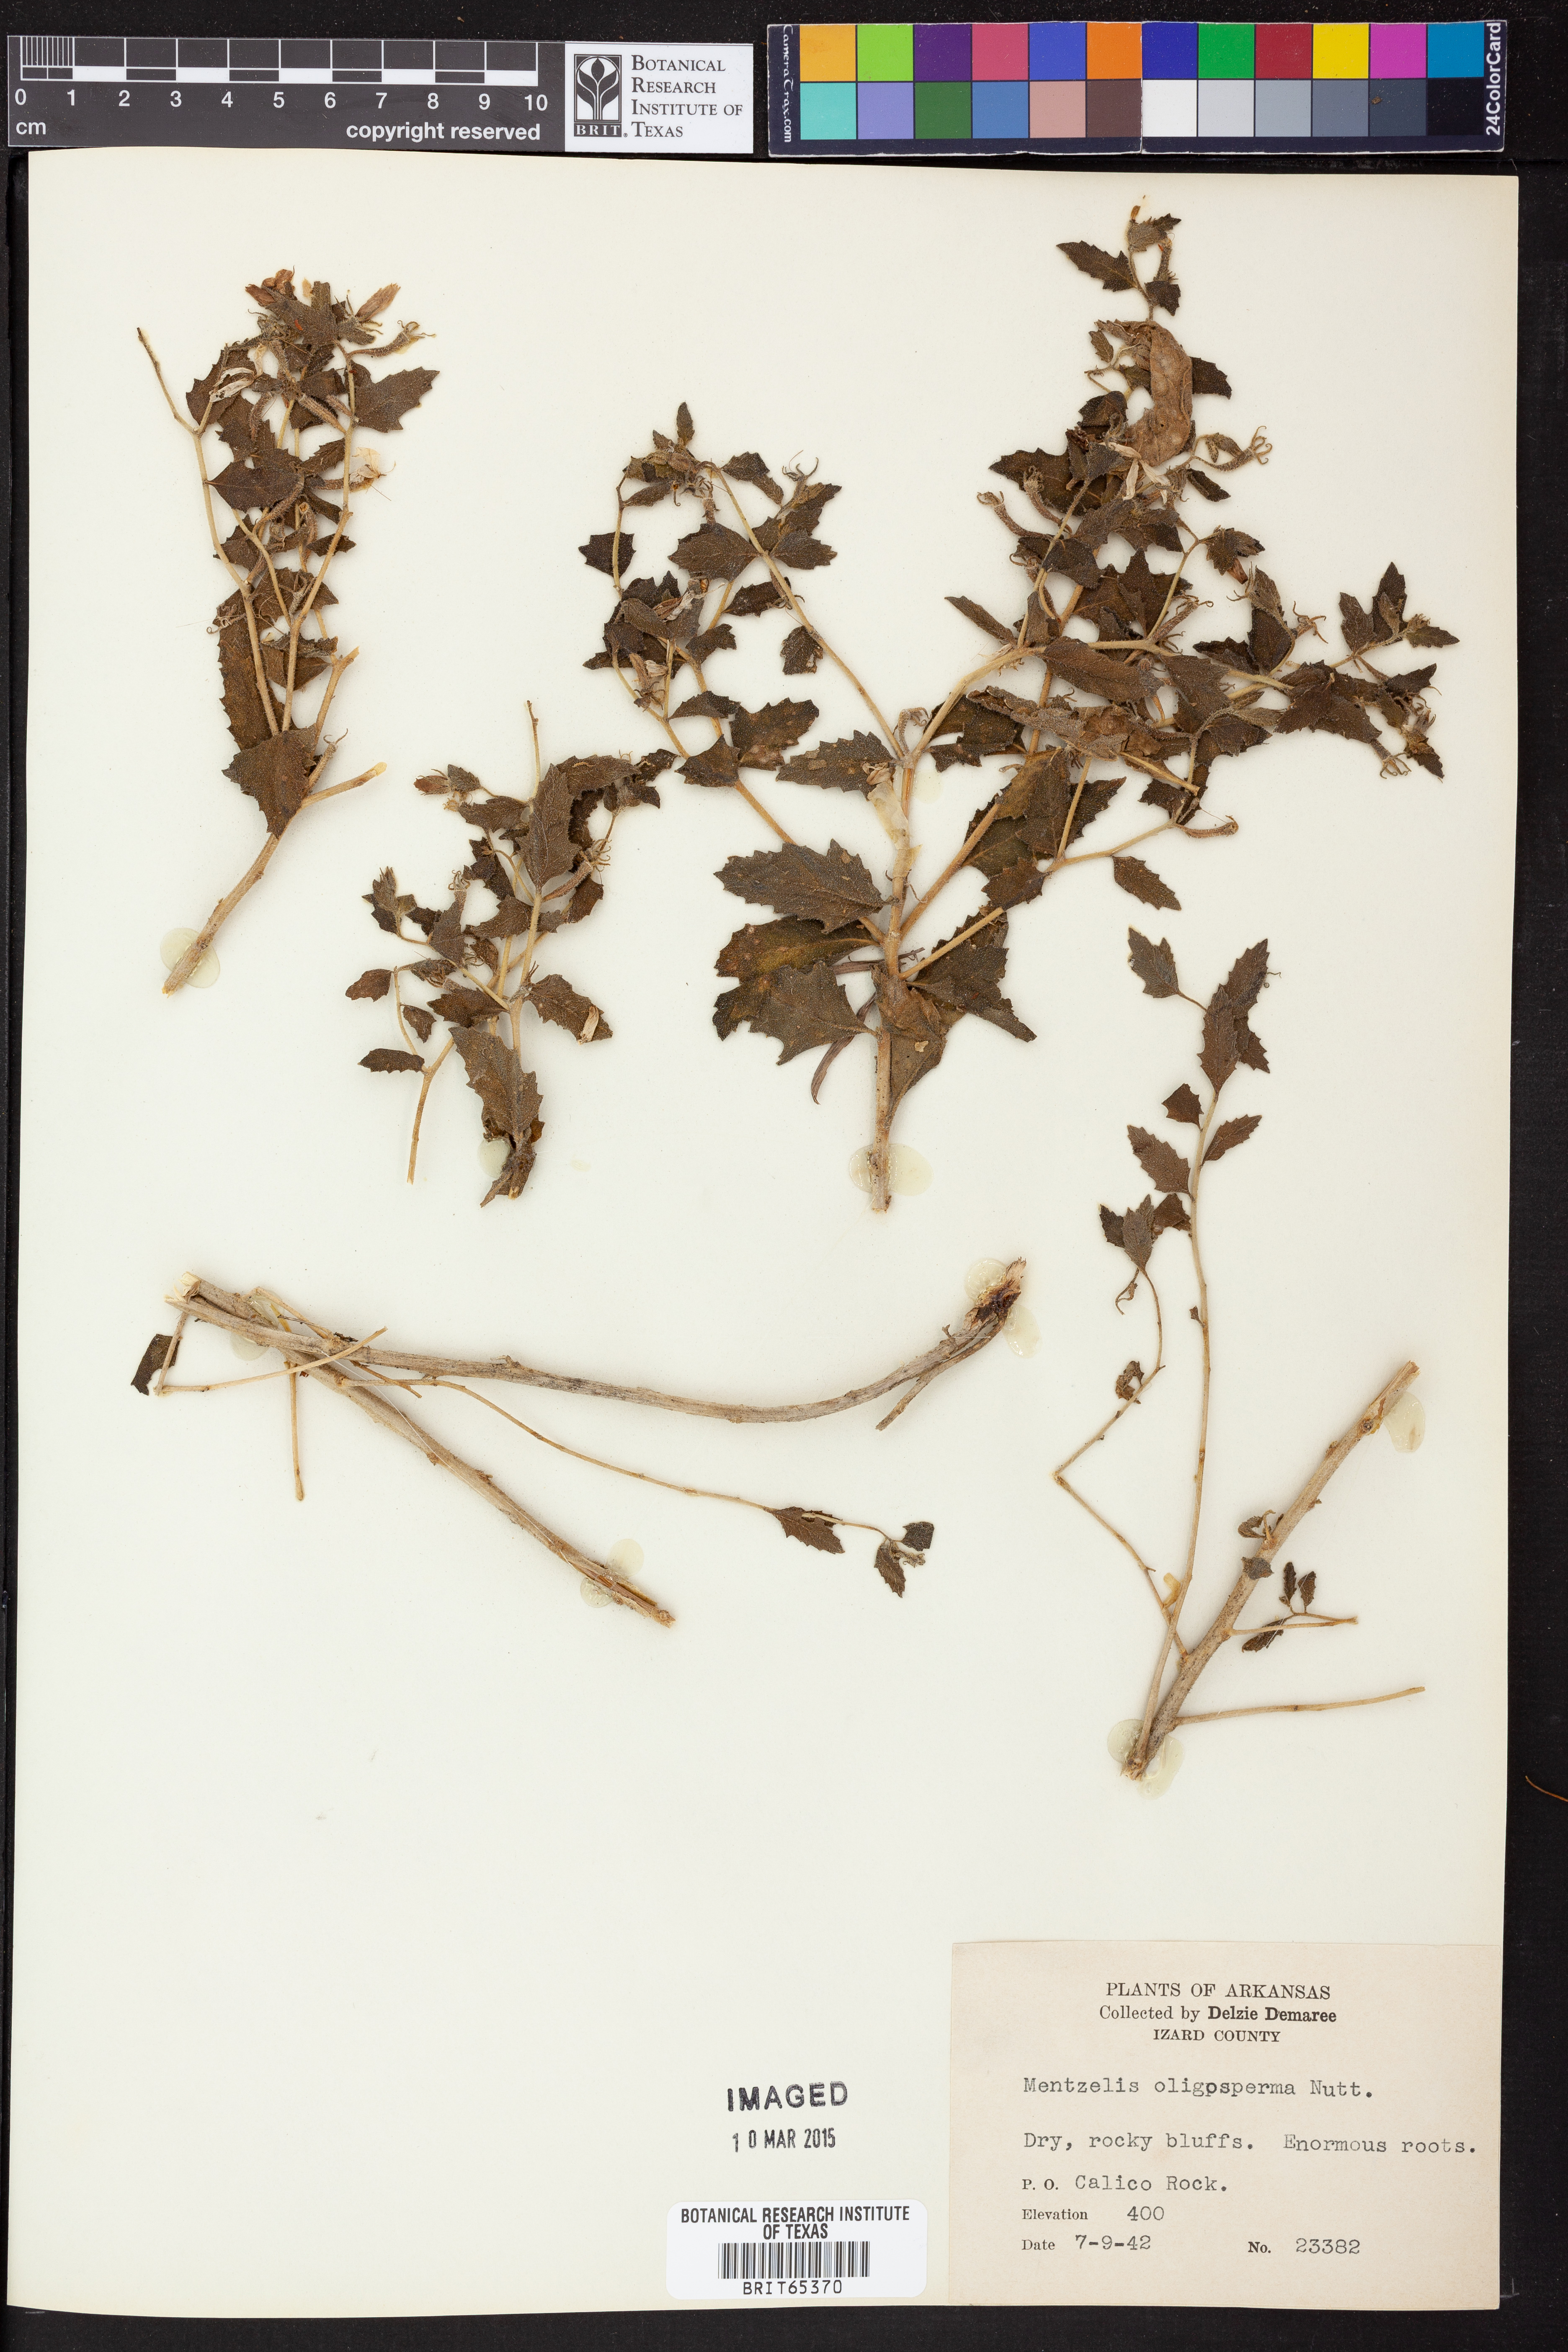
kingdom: Plantae
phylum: Tracheophyta
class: Magnoliopsida
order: Cornales
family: Loasaceae
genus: Mentzelia
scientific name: Mentzelia oligosperma
